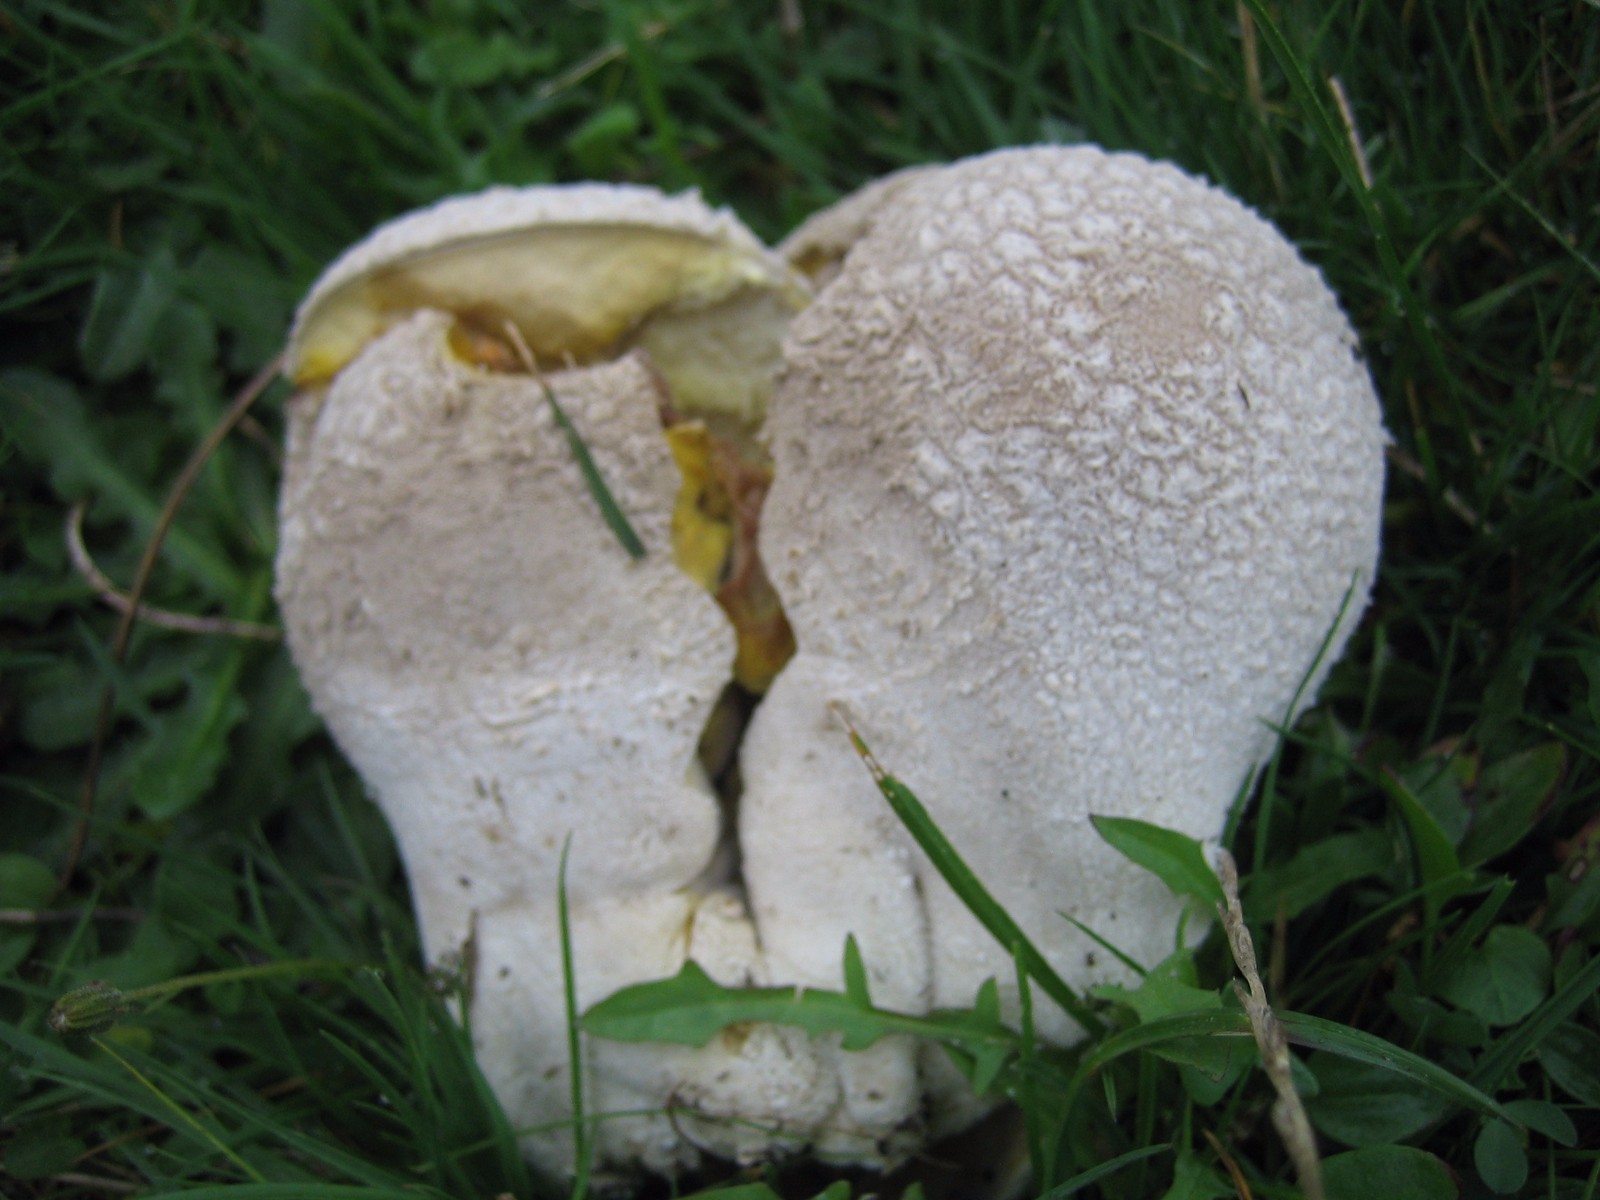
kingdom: Fungi
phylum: Basidiomycota
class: Agaricomycetes
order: Agaricales
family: Lycoperdaceae
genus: Bovistella
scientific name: Bovistella utriformis
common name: skællet støvbold
